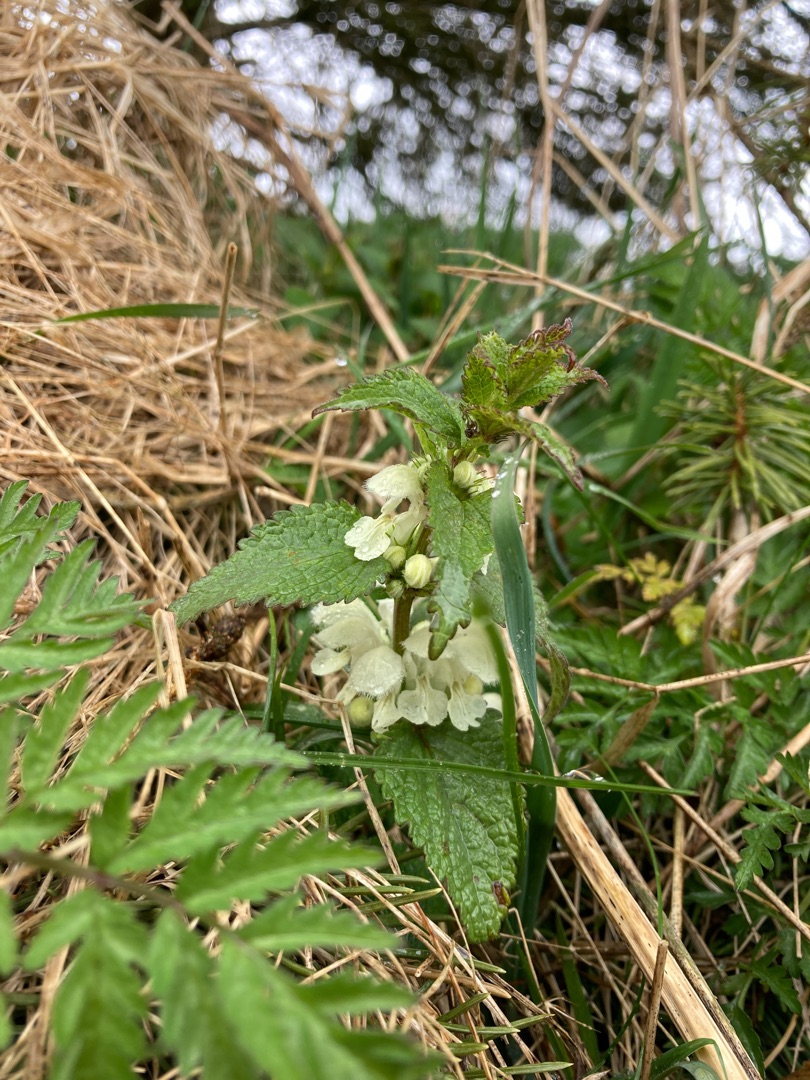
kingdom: Plantae
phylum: Tracheophyta
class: Magnoliopsida
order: Lamiales
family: Lamiaceae
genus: Lamium
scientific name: Lamium album
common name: Døvnælde
